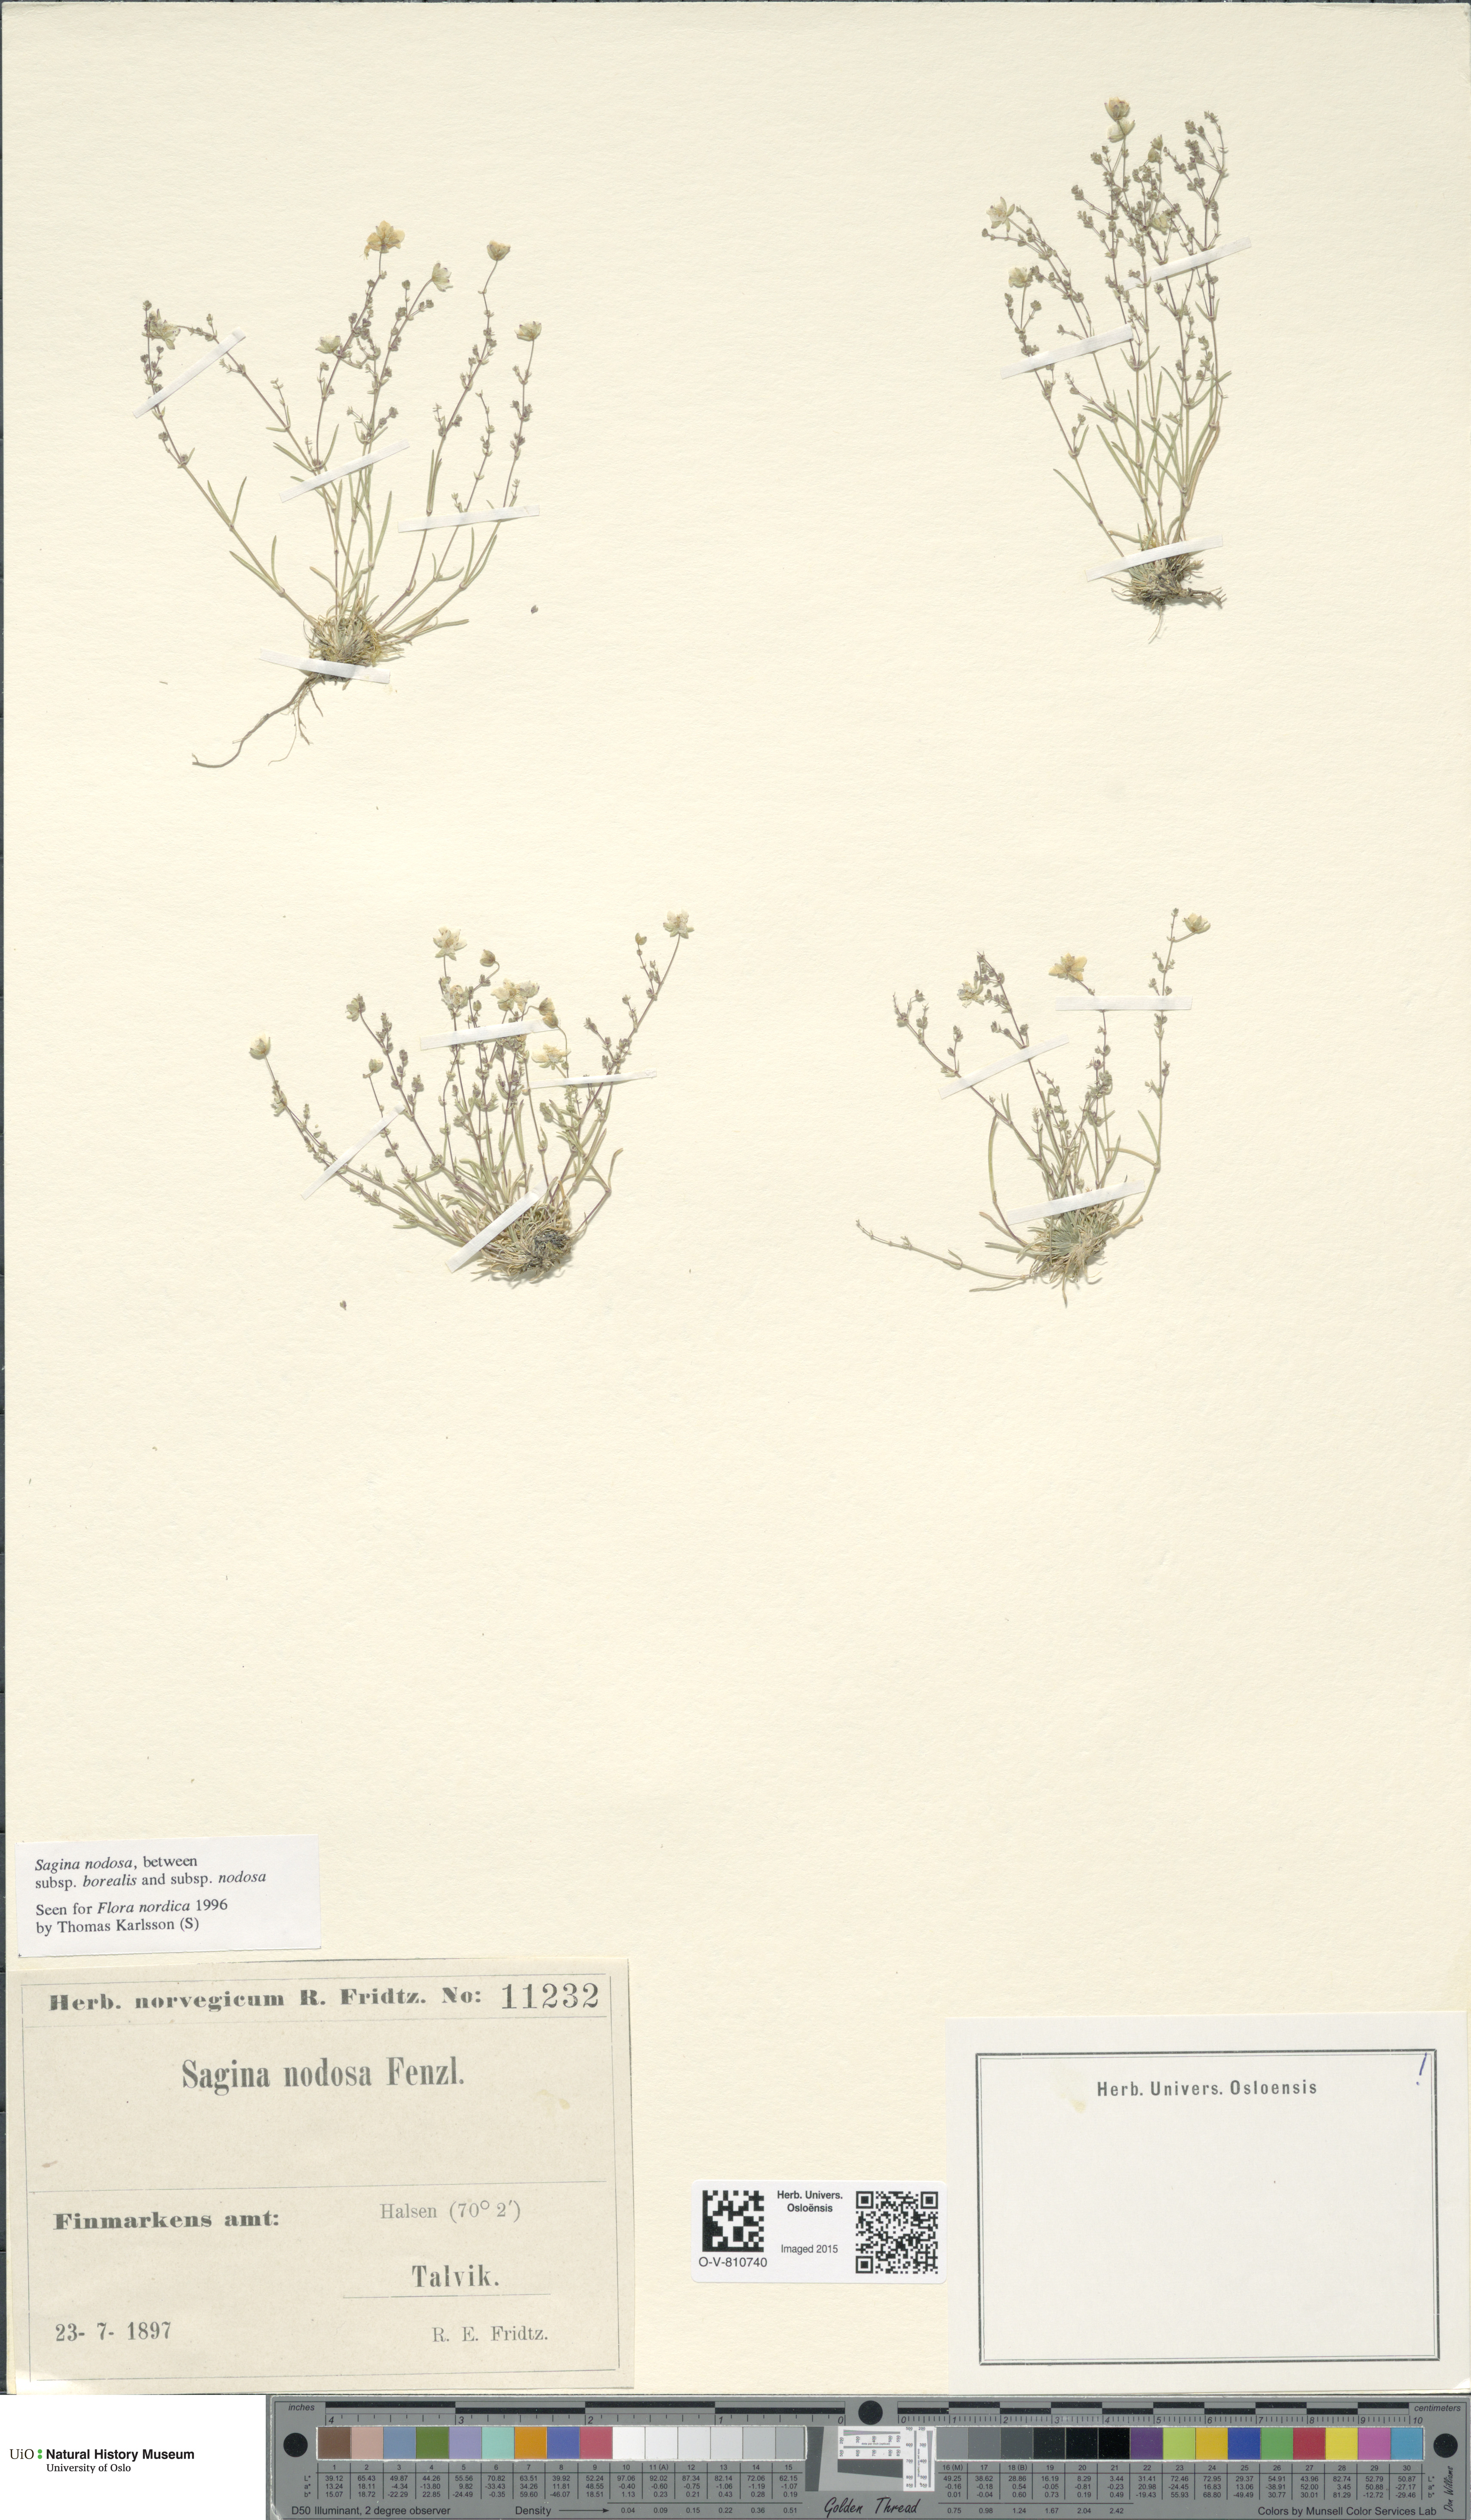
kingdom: Plantae
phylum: Tracheophyta
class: Magnoliopsida
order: Caryophyllales
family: Caryophyllaceae
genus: Sagina
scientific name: Sagina
